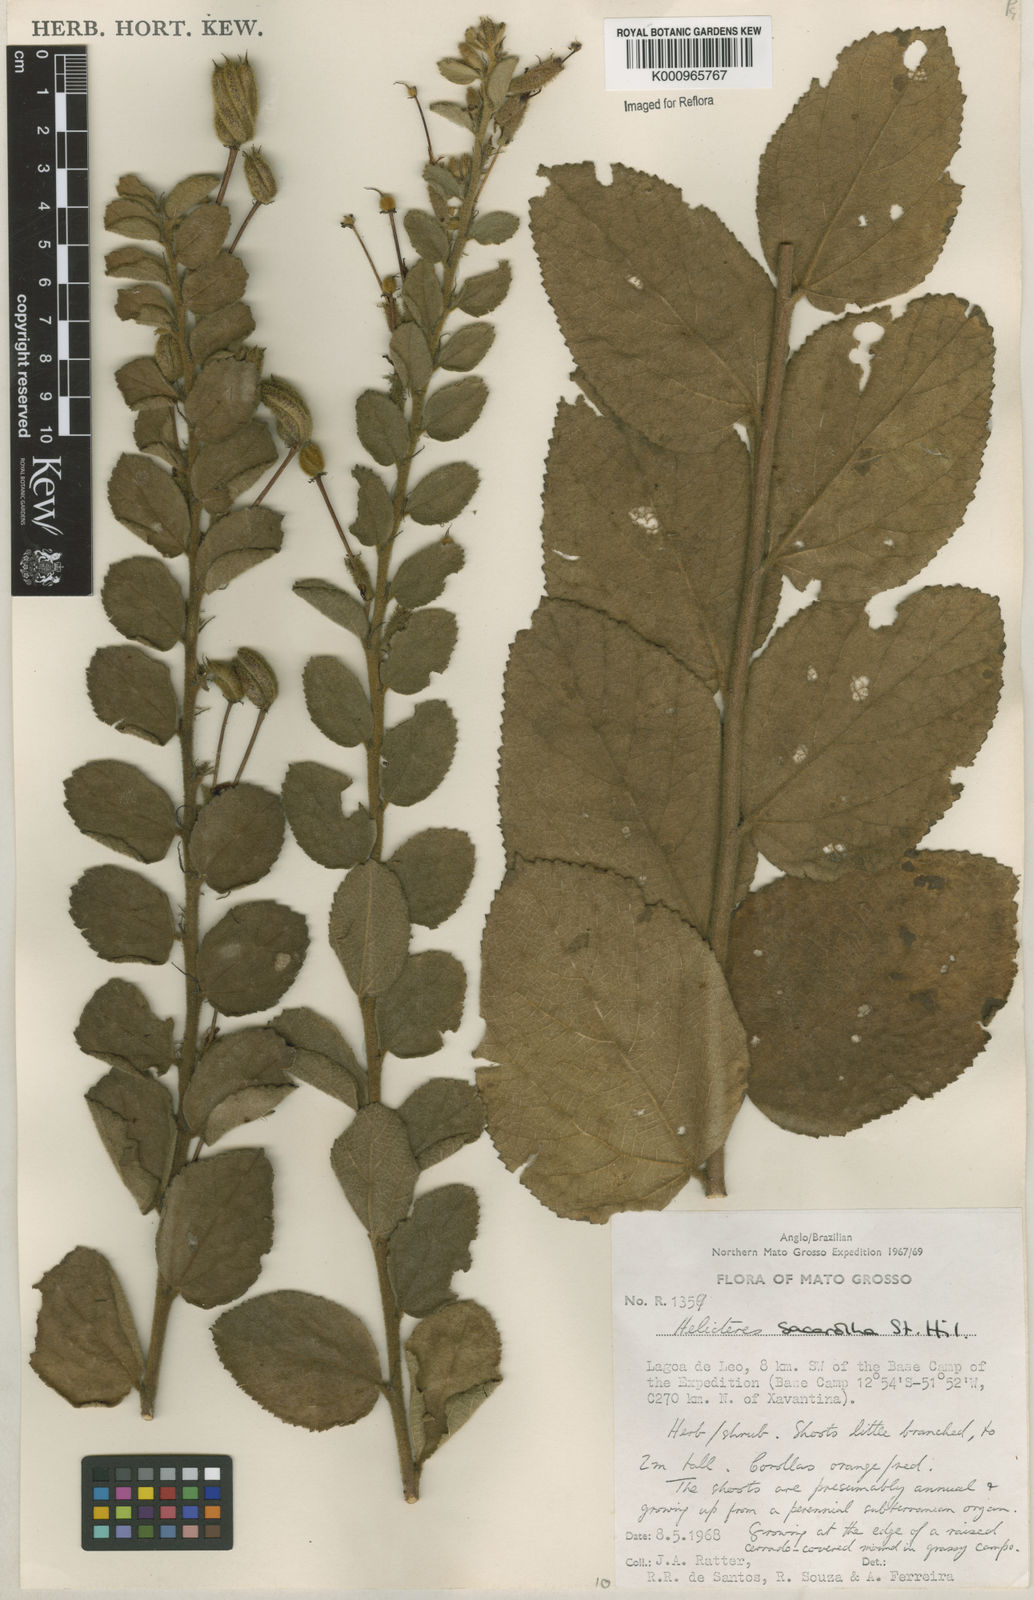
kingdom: Plantae
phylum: Tracheophyta
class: Magnoliopsida
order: Malvales
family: Malvaceae
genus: Helicteres
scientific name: Helicteres
